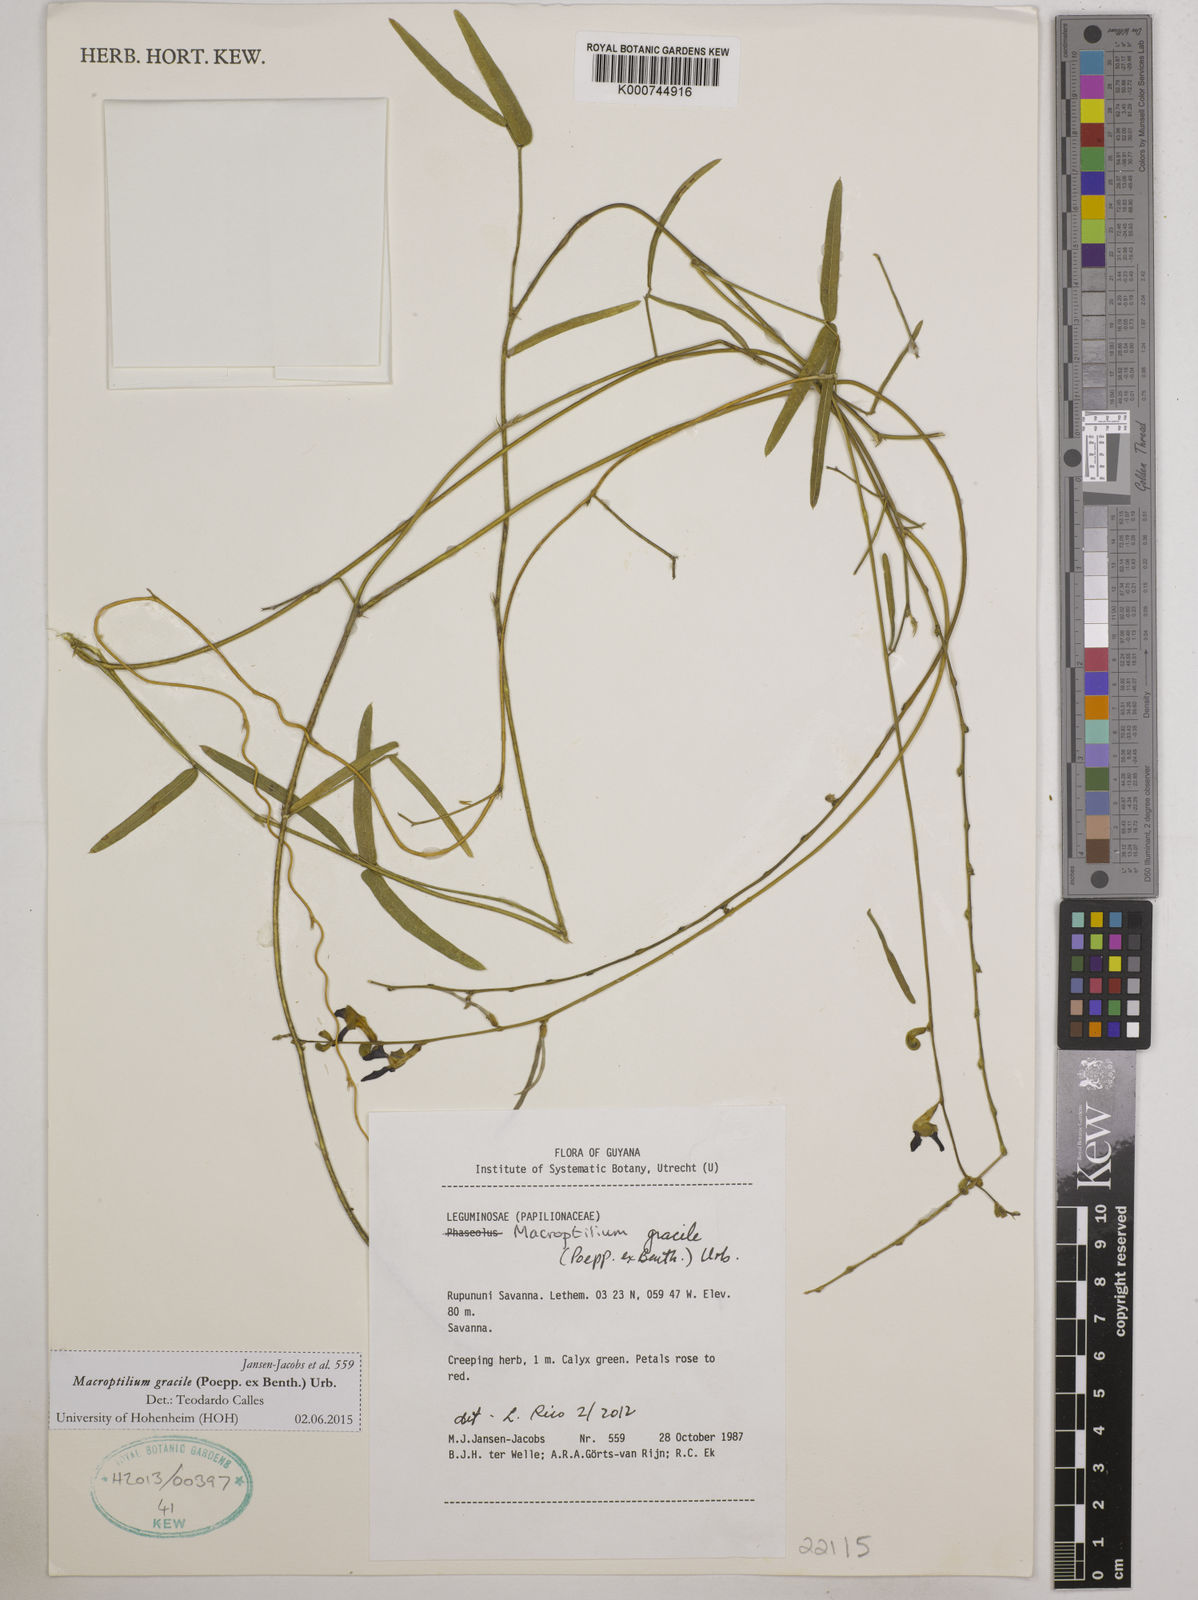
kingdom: Plantae
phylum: Tracheophyta
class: Magnoliopsida
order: Fabales
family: Fabaceae
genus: Macroptilium
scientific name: Macroptilium gracile
